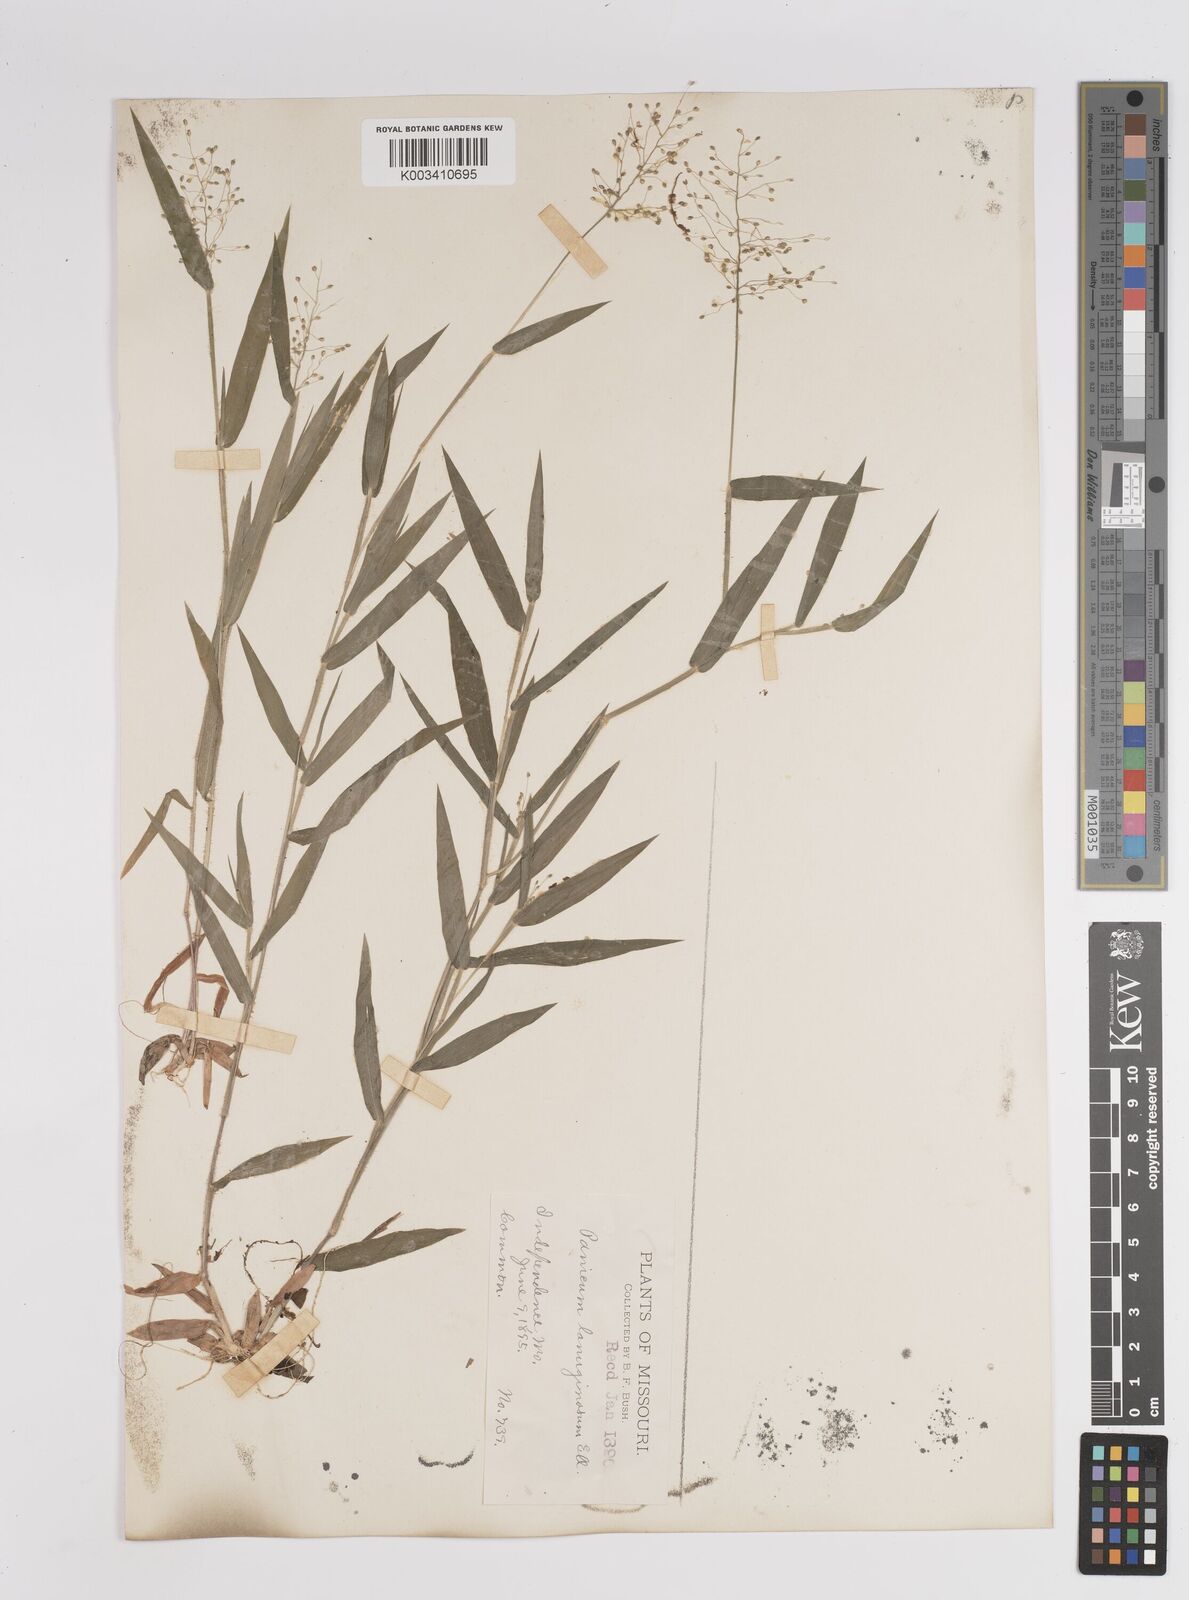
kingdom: Plantae
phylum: Tracheophyta
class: Liliopsida
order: Poales
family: Poaceae
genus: Dichanthelium
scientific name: Dichanthelium lanuginosum
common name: Woolly panicgrass
